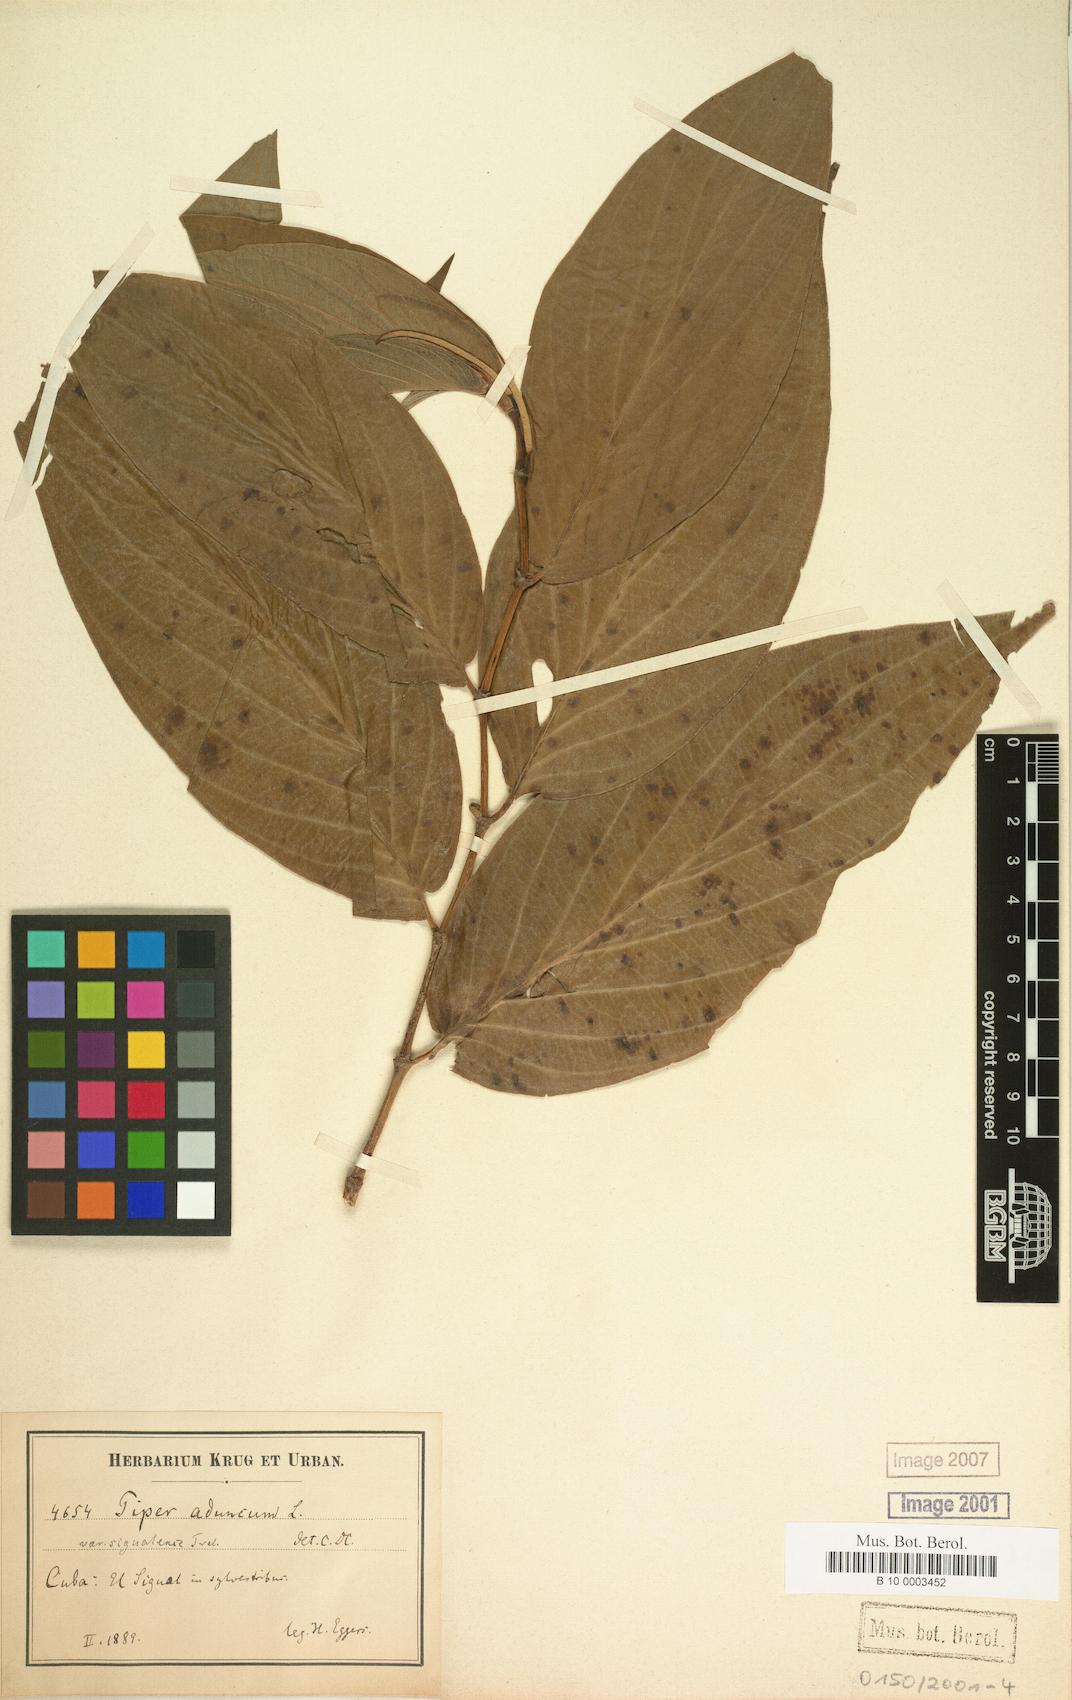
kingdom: Plantae
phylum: Tracheophyta
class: Magnoliopsida
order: Piperales
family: Piperaceae
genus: Piper
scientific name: Piper aduncum
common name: Spiked pepper
